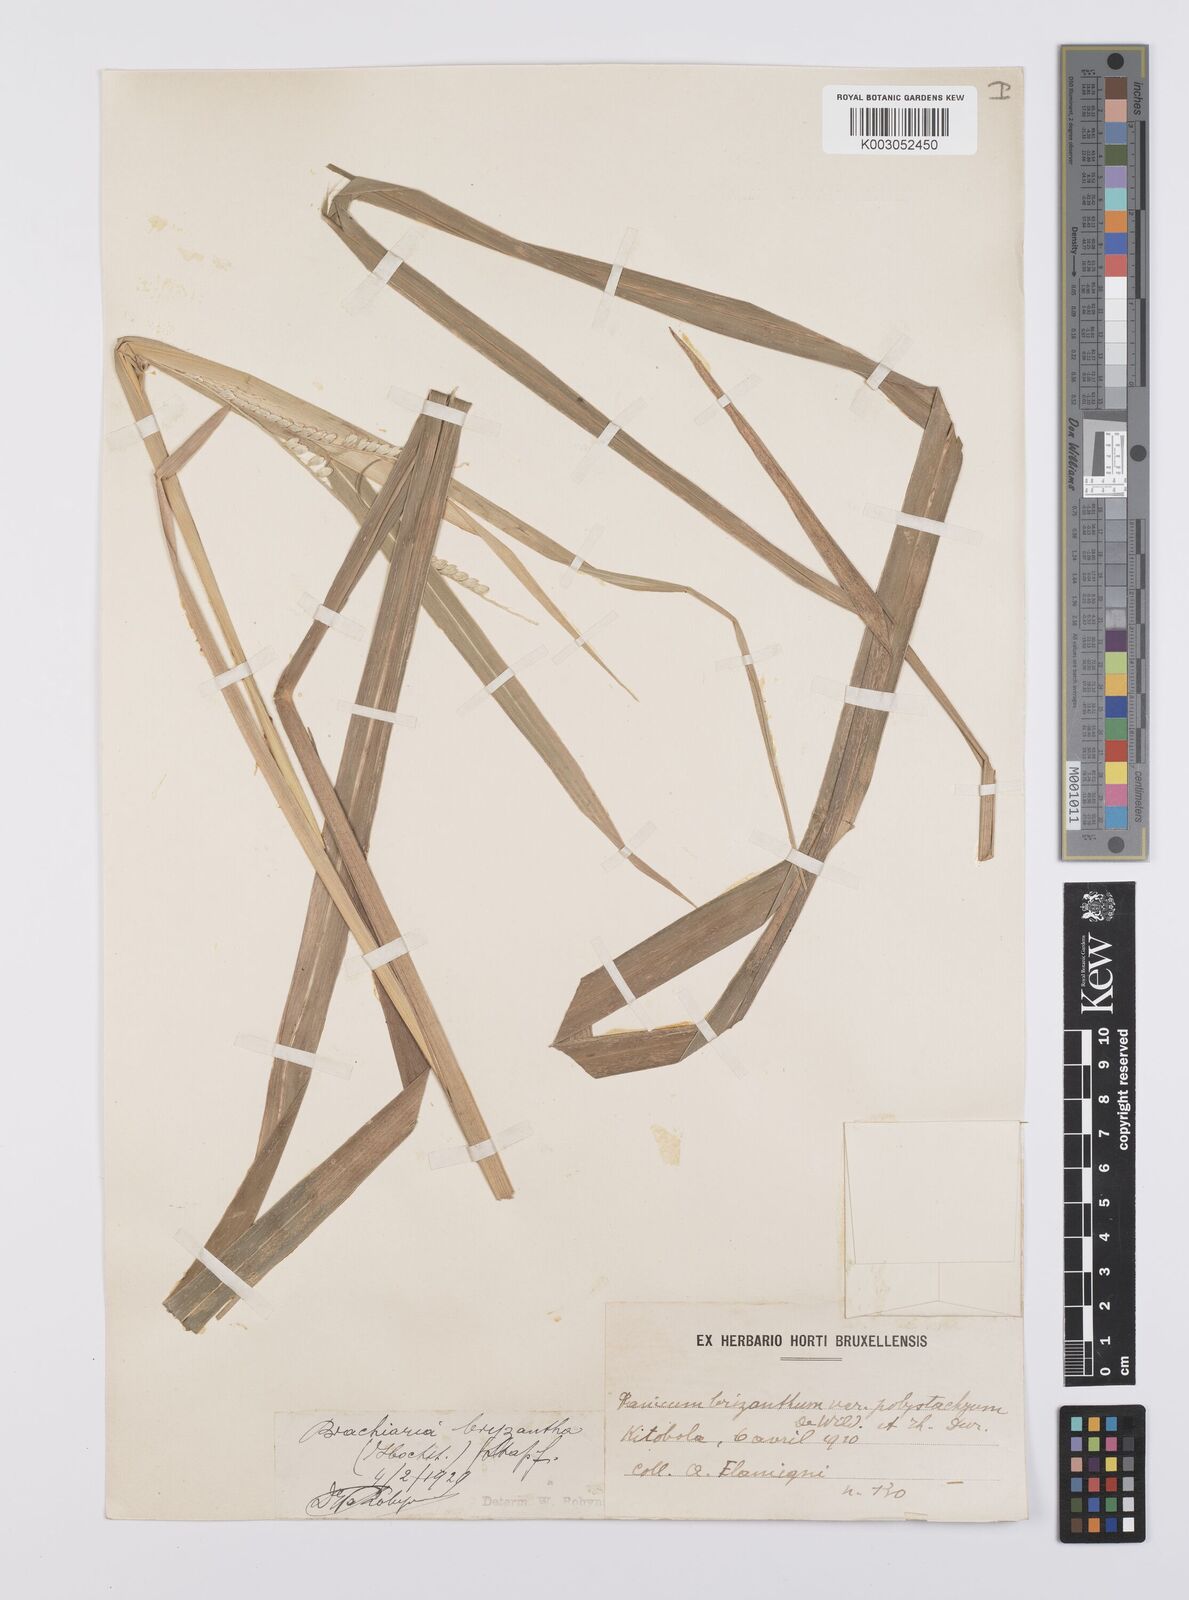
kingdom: Plantae
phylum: Tracheophyta
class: Liliopsida
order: Poales
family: Poaceae
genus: Urochloa
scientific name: Urochloa brizantha
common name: Palisade signalgrass
